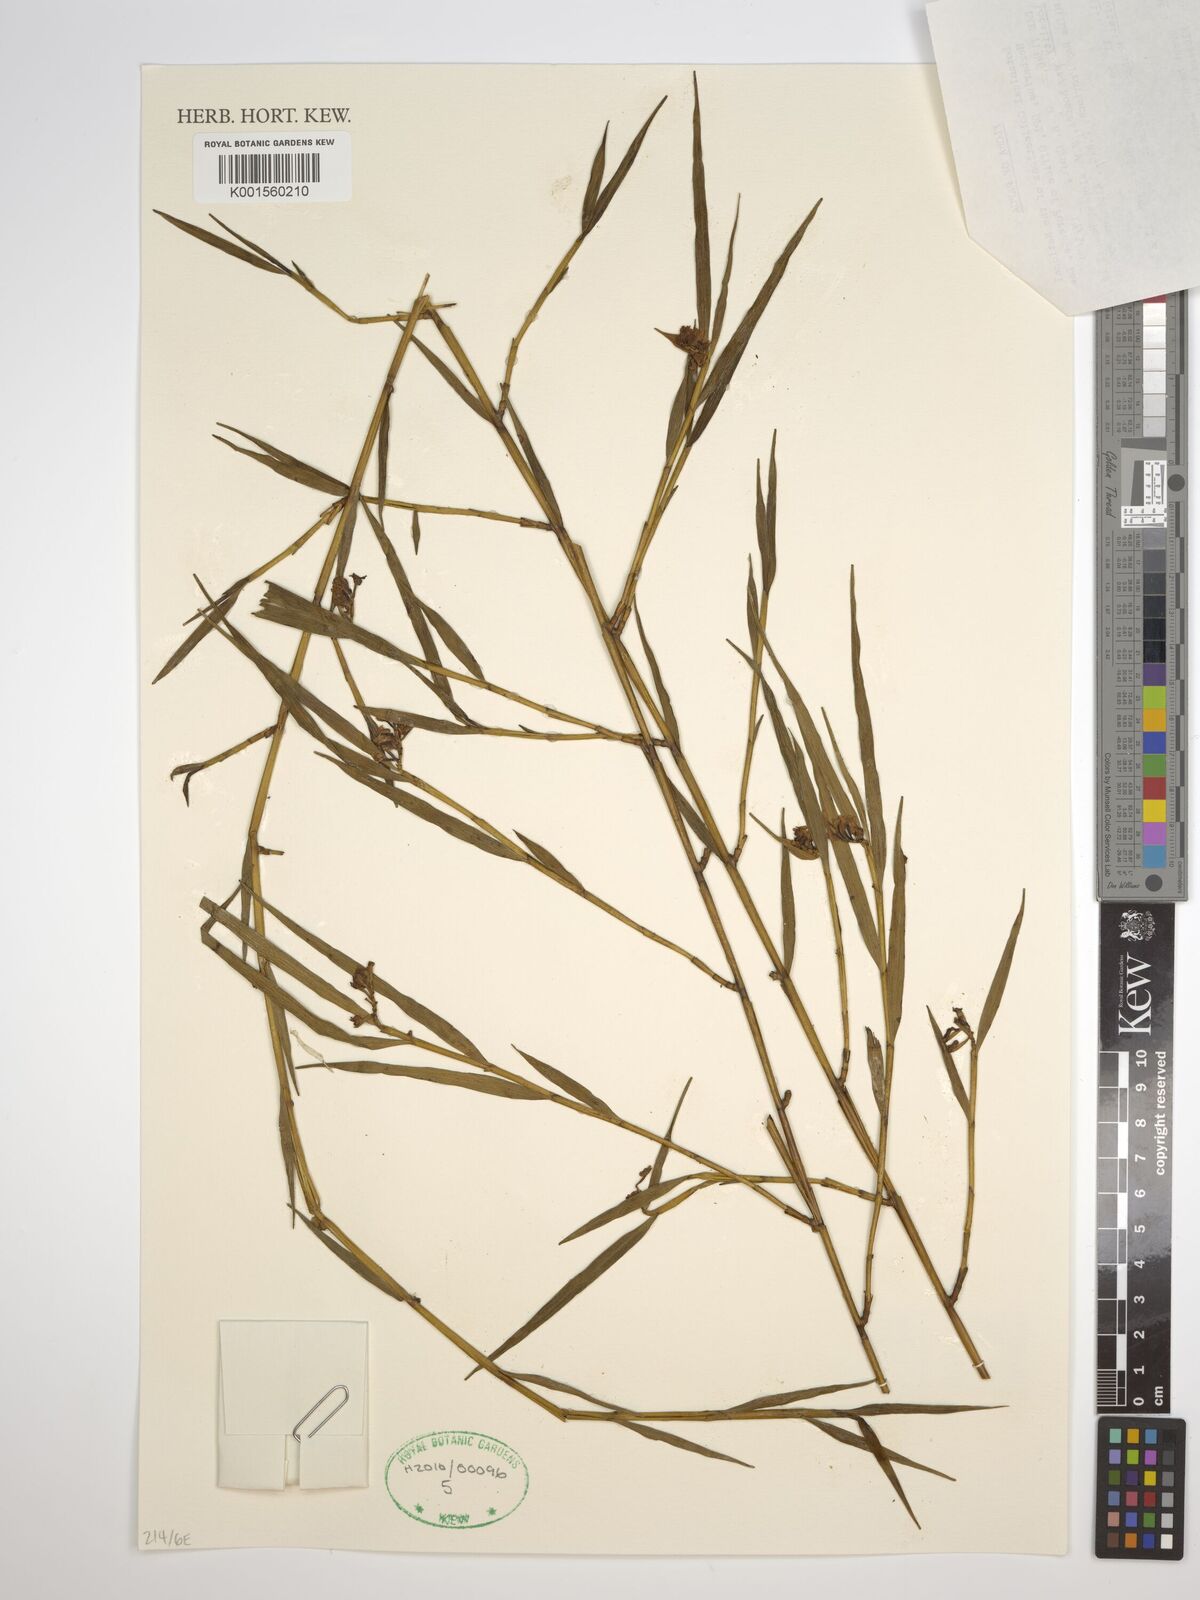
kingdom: Plantae
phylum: Tracheophyta
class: Liliopsida
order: Asparagales
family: Orchidaceae
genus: Glomera
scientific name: Glomera
